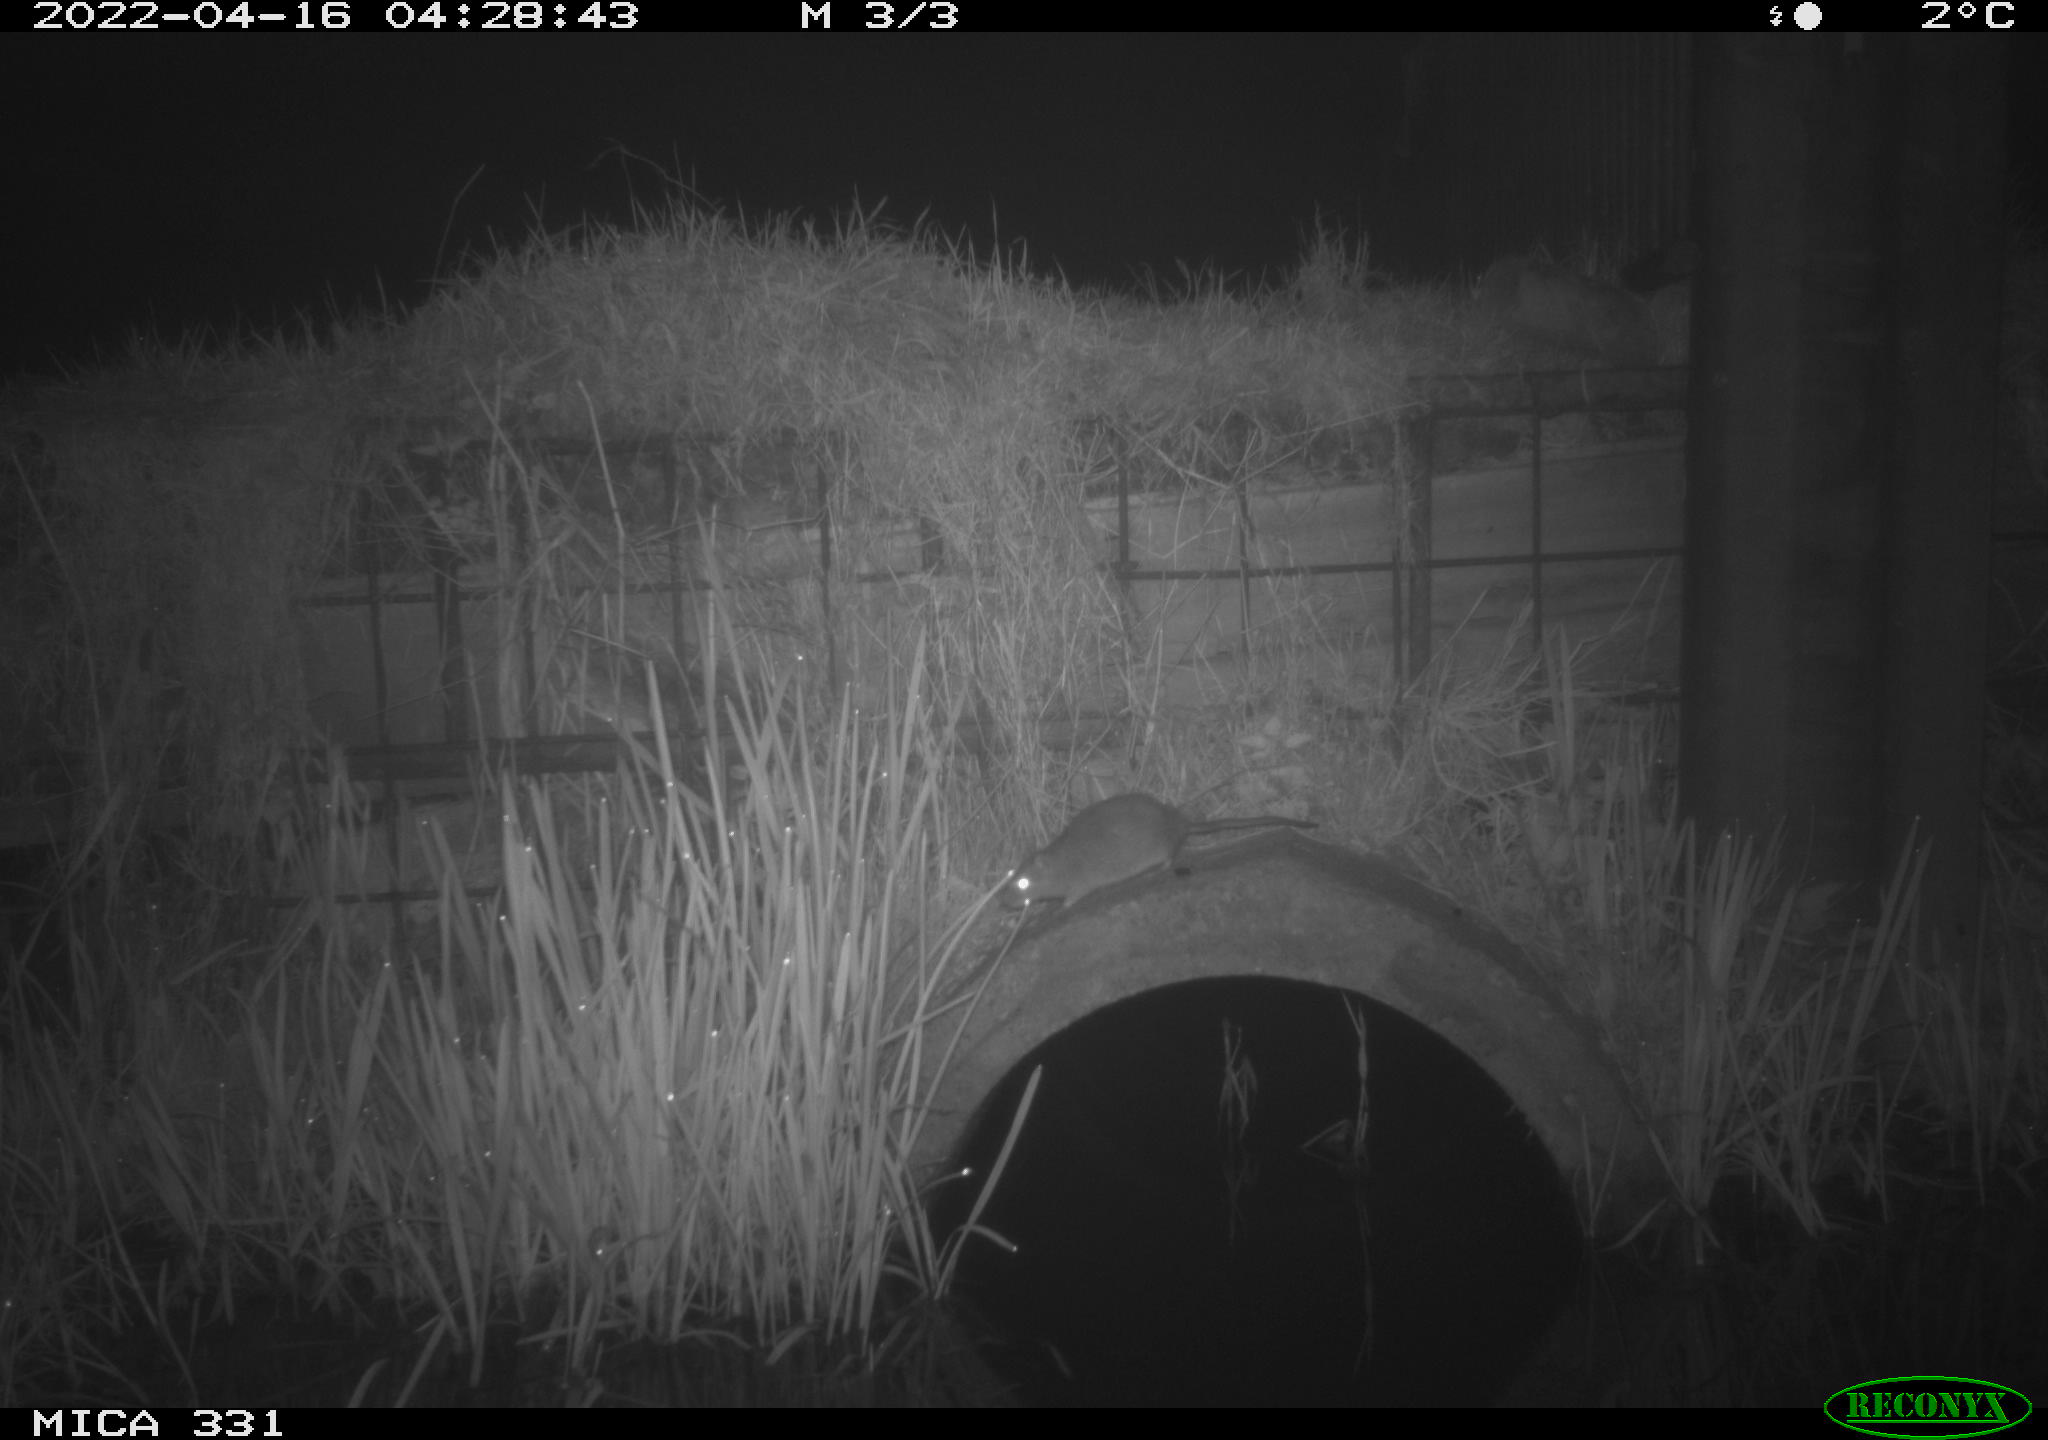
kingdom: Animalia
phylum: Chordata
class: Mammalia
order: Rodentia
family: Muridae
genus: Rattus
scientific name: Rattus norvegicus
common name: Brown rat
